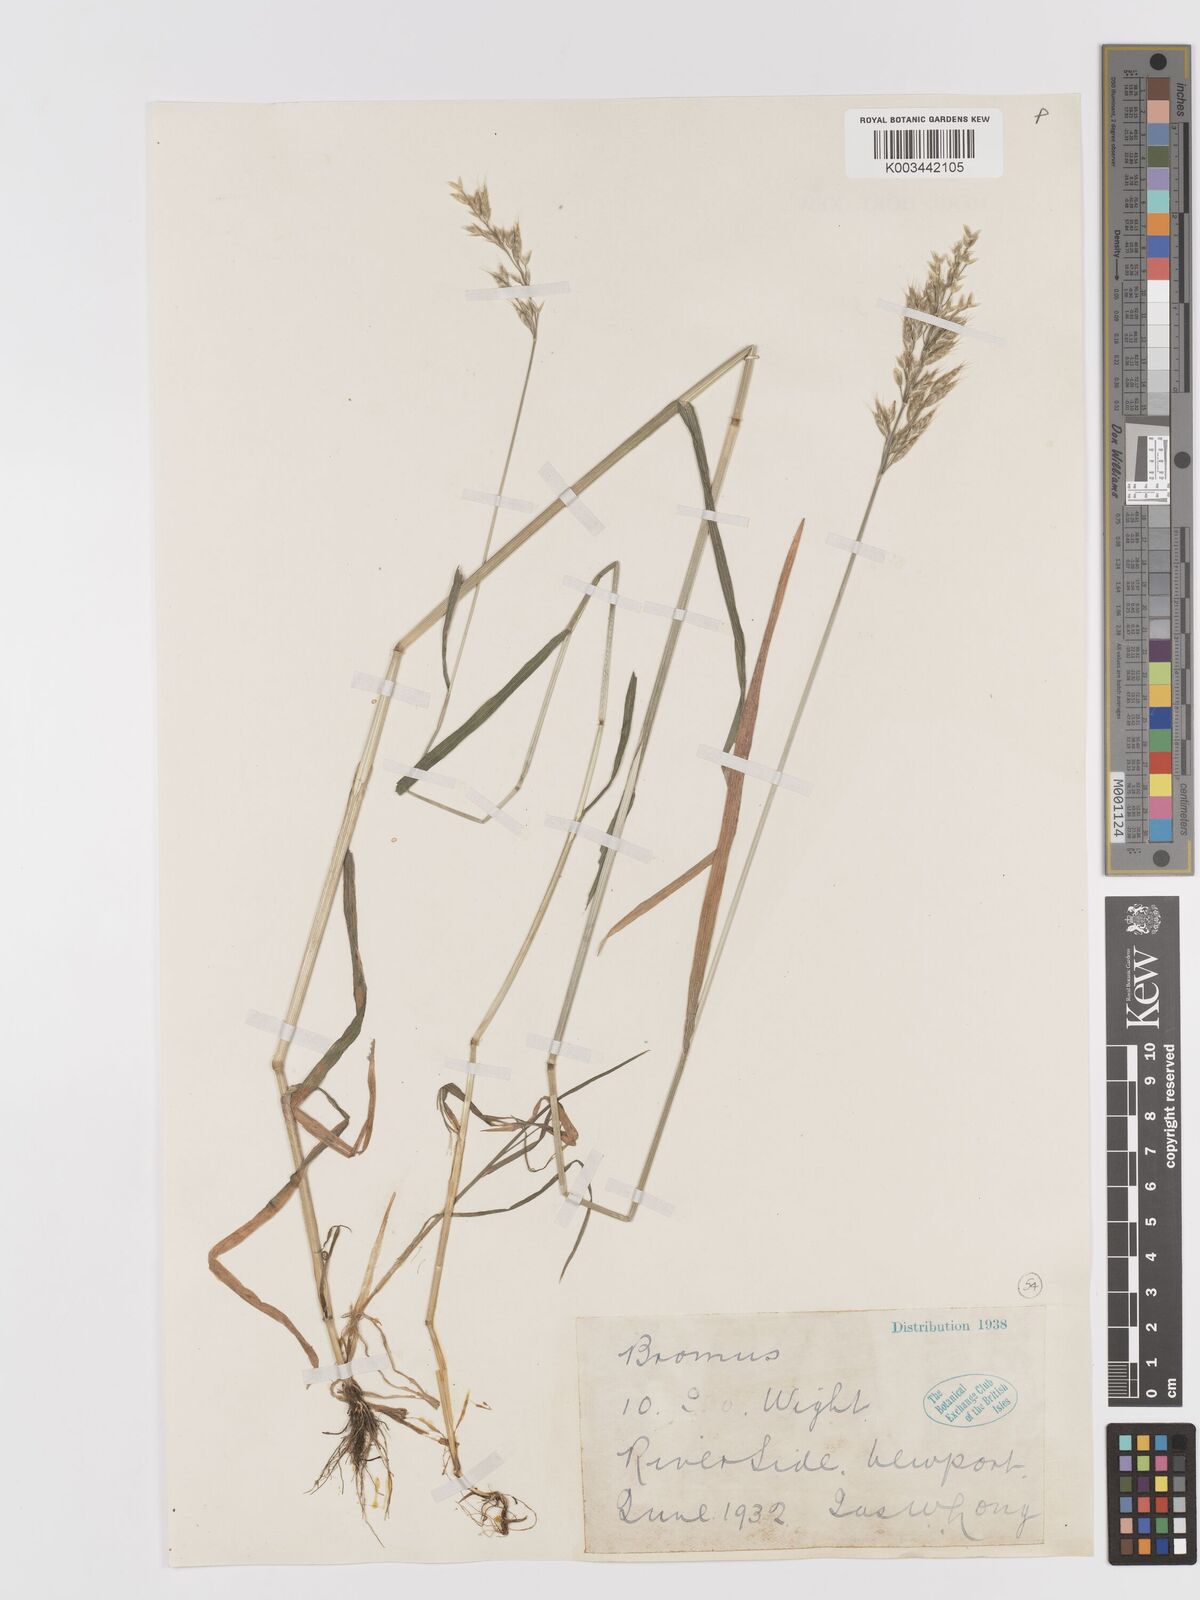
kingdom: Plantae
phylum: Tracheophyta
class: Liliopsida
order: Poales
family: Poaceae
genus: Bromus
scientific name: Bromus lepidus
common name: Slender soft-brome
